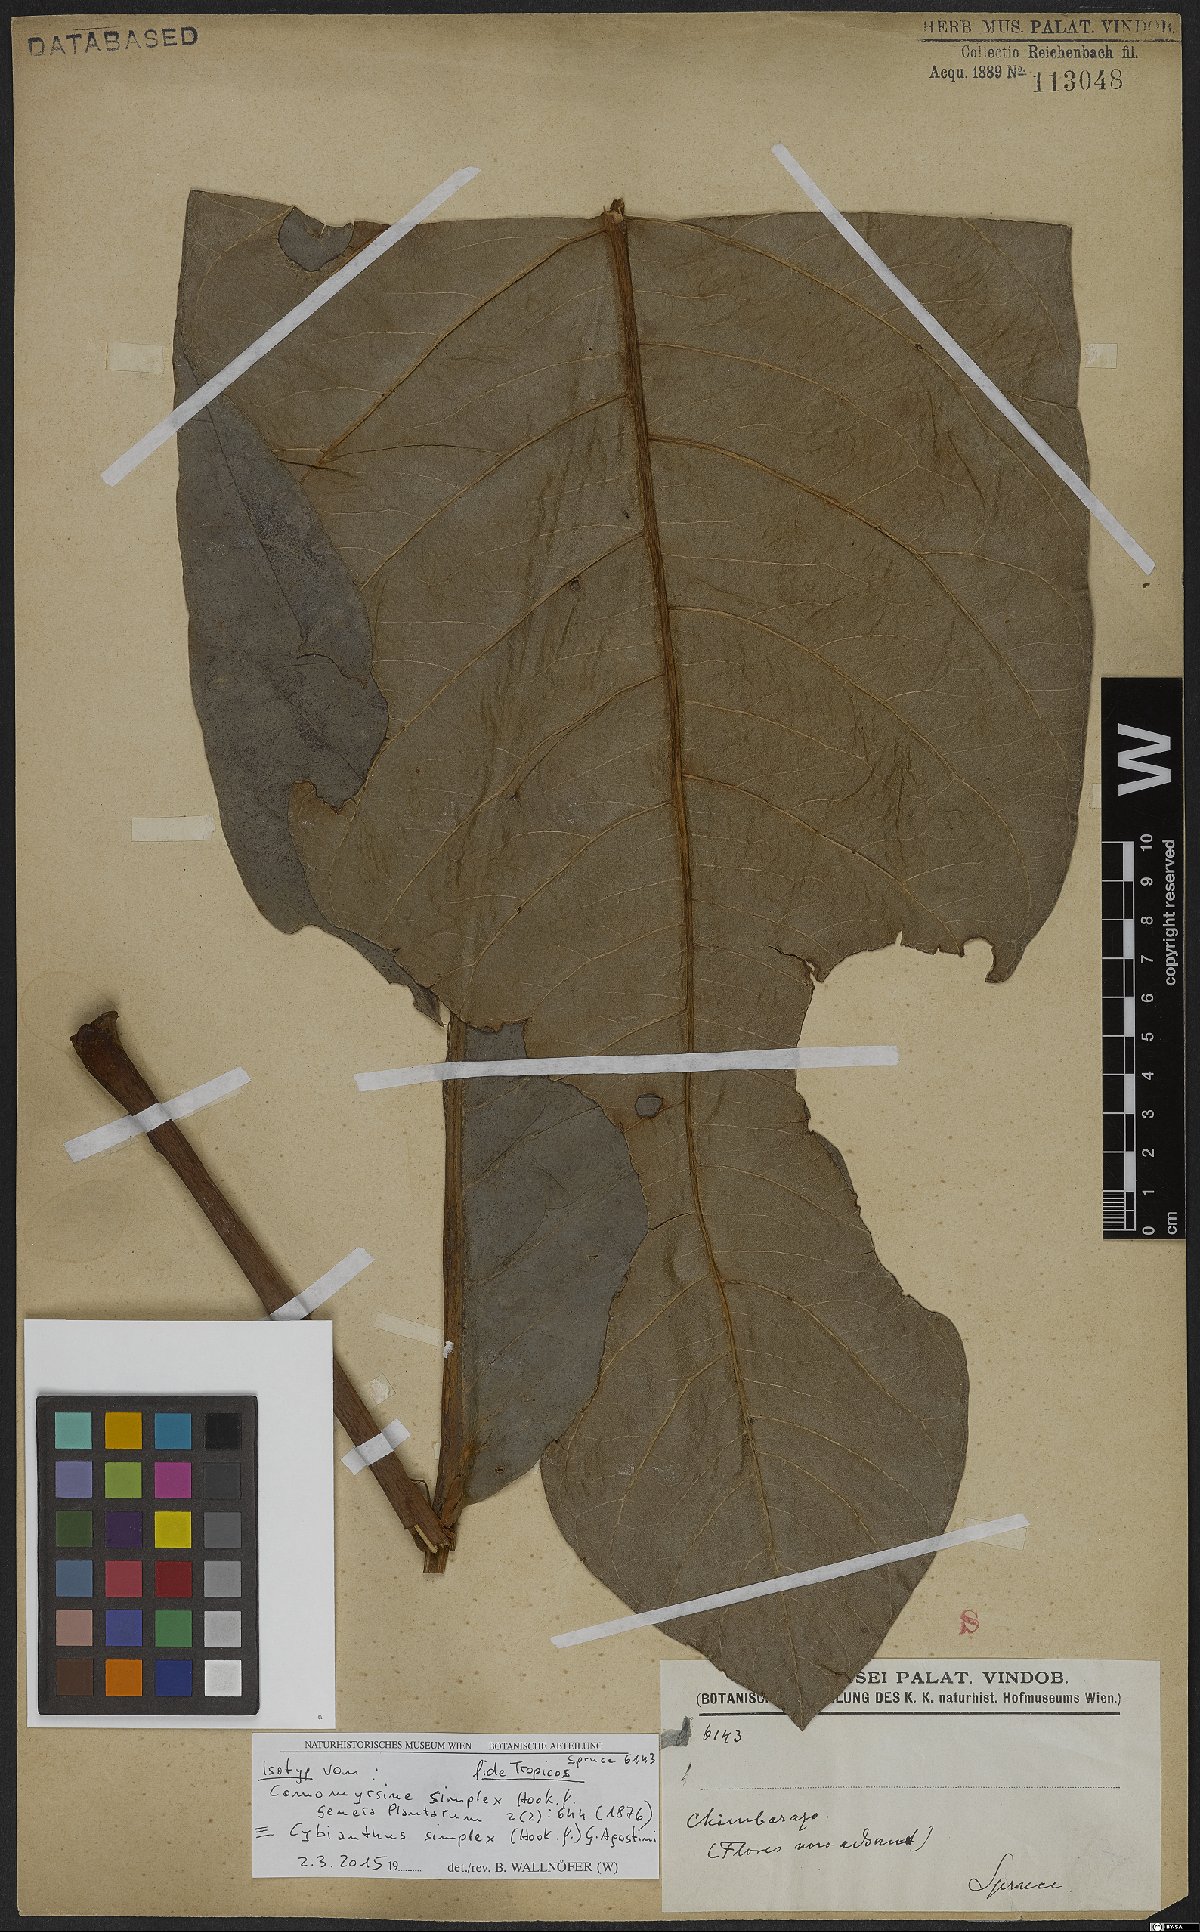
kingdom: Plantae
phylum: Tracheophyta
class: Magnoliopsida
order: Ericales
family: Primulaceae
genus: Cybianthus
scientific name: Cybianthus simplex
